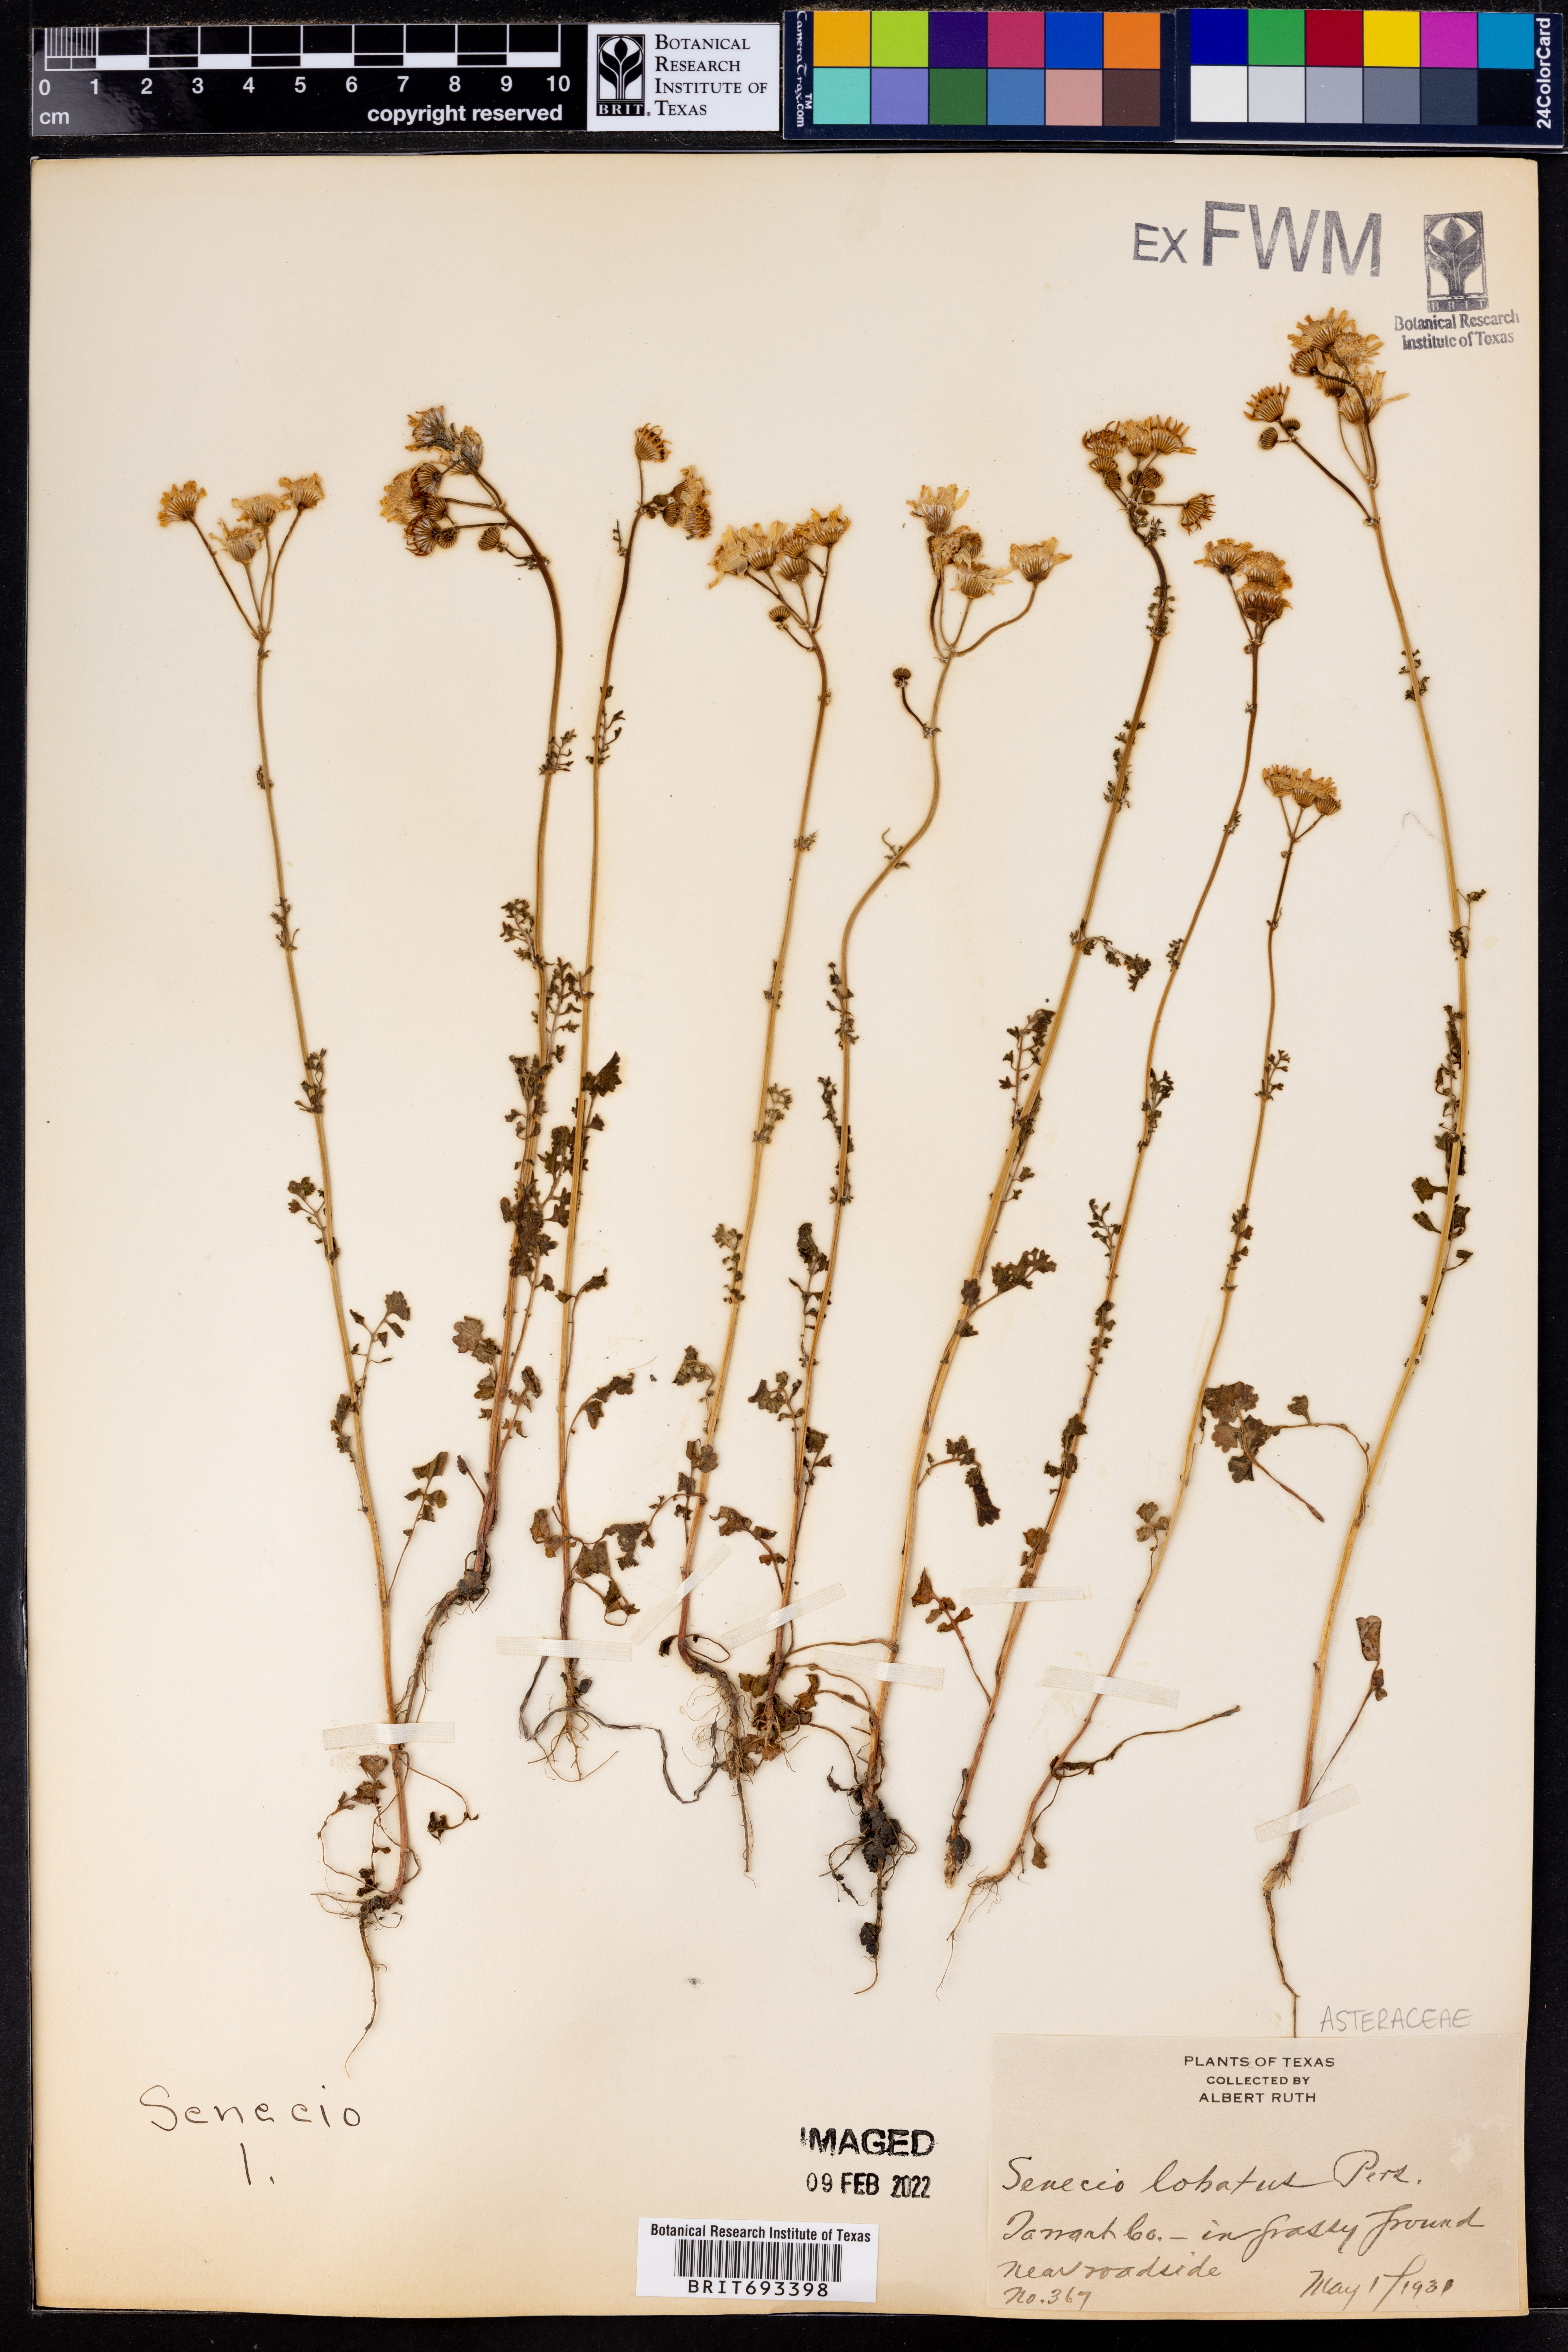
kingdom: Plantae
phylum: Tracheophyta
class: Magnoliopsida
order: Asterales
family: Asteraceae
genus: Packera
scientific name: Packera glabella
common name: Butterweed
